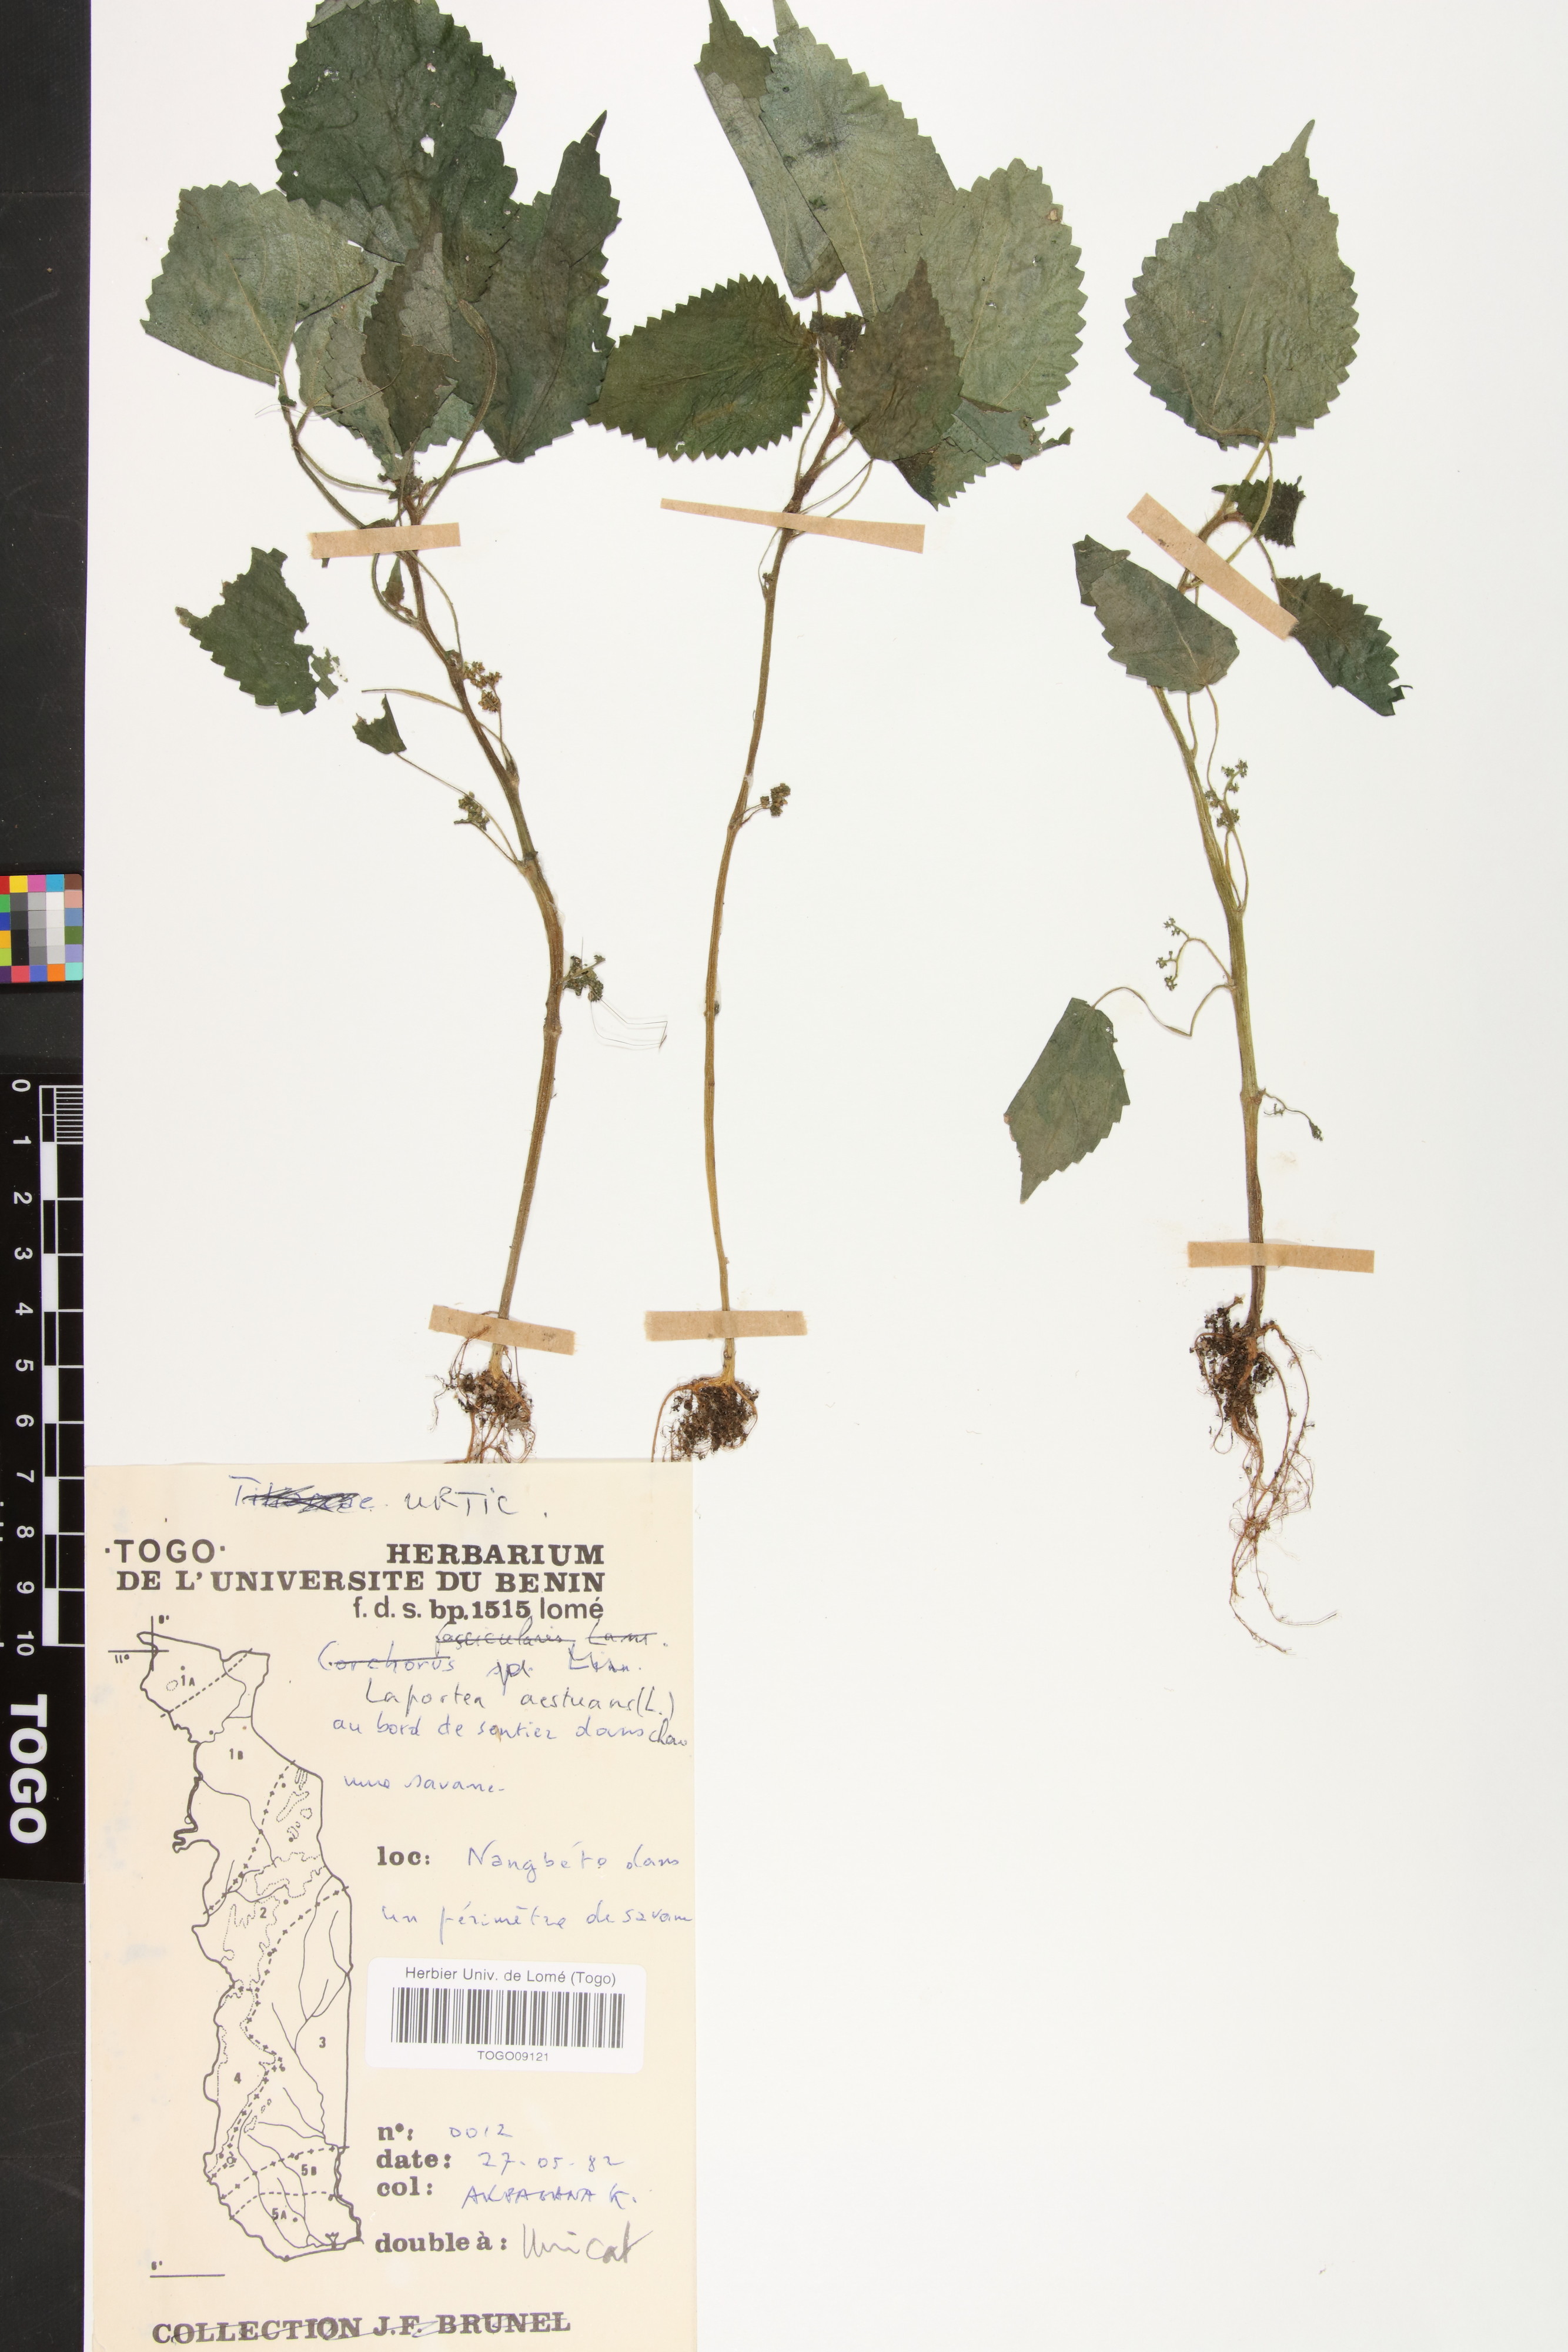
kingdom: Plantae
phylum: Tracheophyta
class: Magnoliopsida
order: Rosales
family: Urticaceae
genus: Laportea
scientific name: Laportea aestuans
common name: West indian woodnettle
